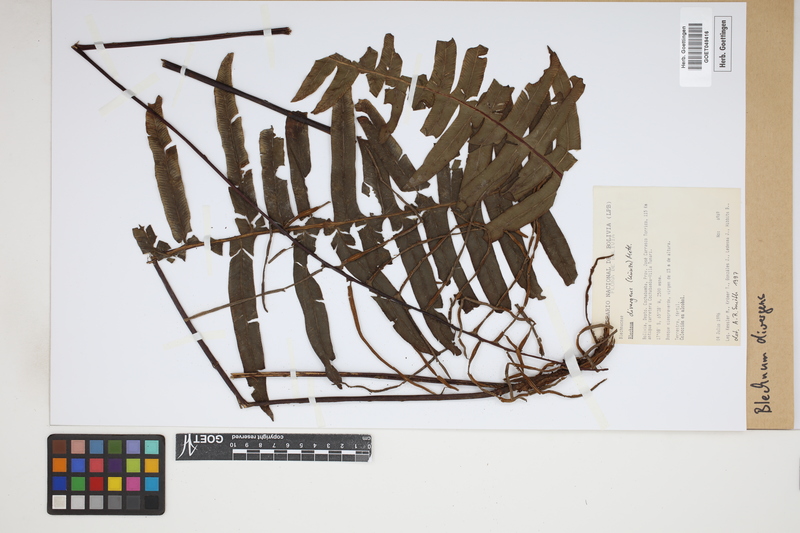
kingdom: Plantae
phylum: Tracheophyta
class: Polypodiopsida
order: Polypodiales
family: Blechnaceae
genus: Austroblechnum
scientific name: Austroblechnum divergens
